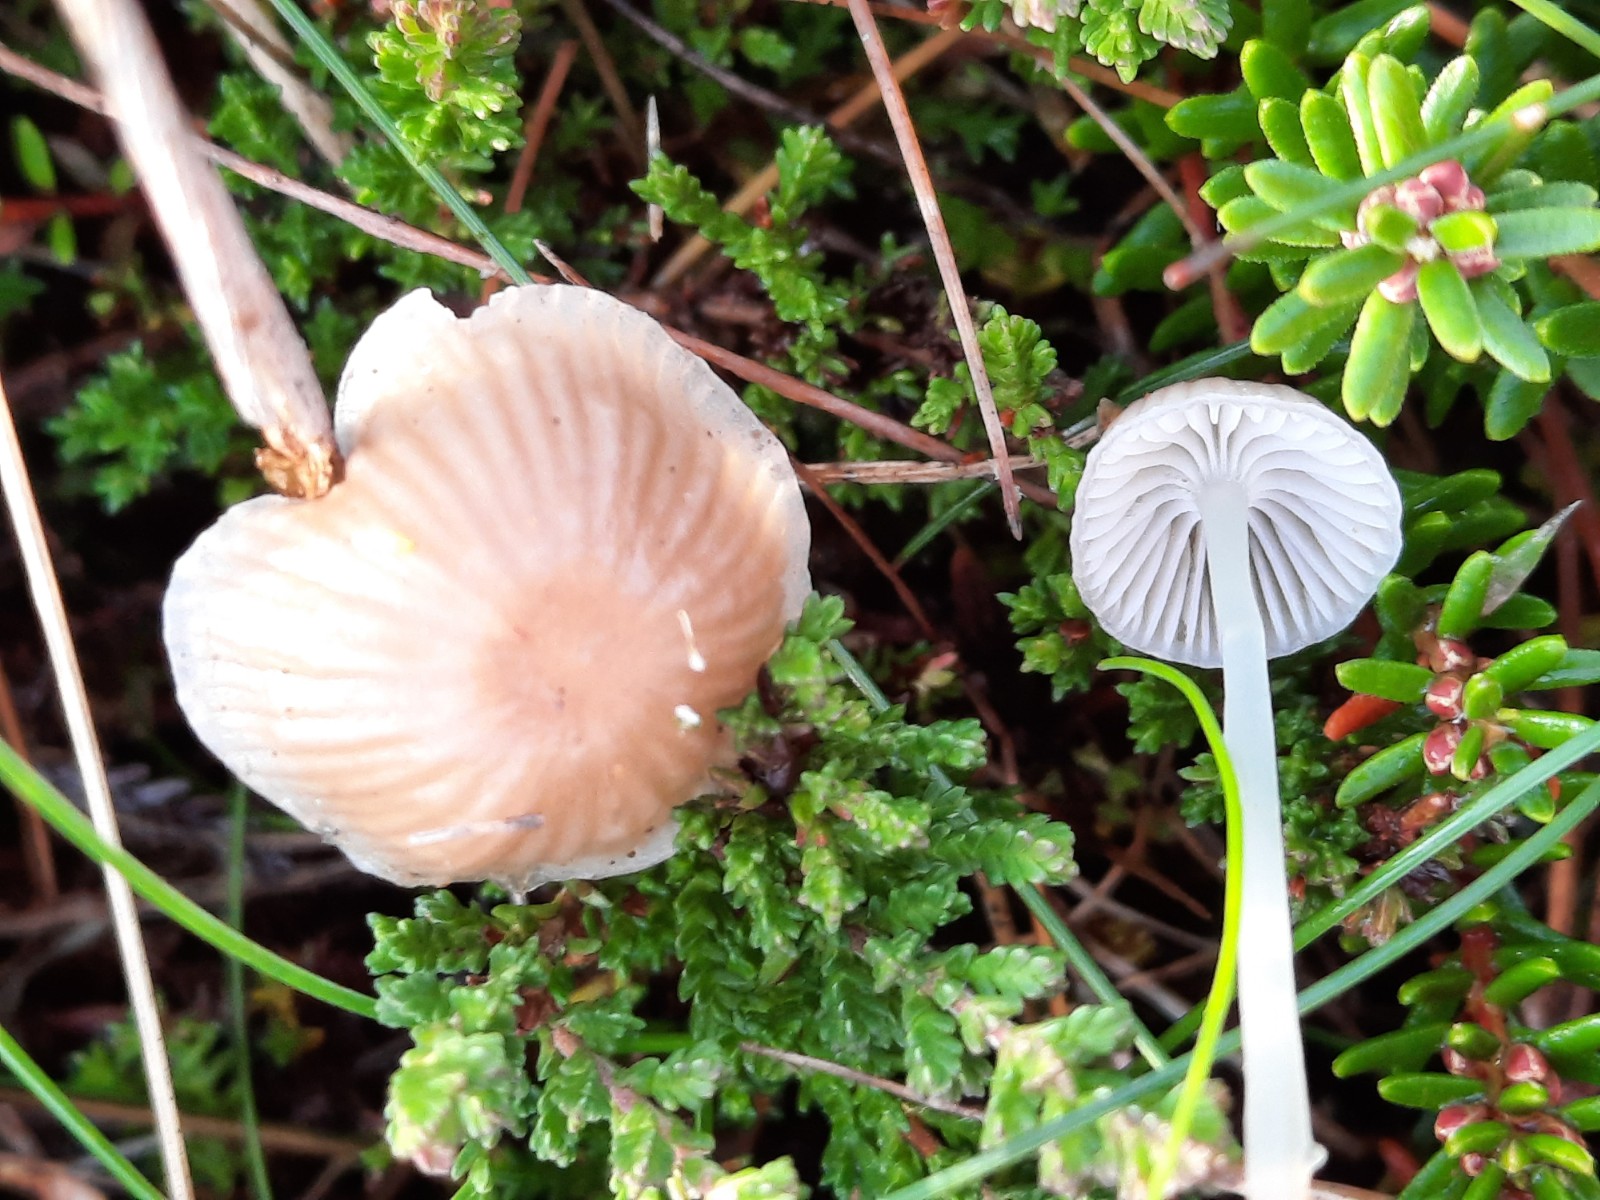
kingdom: Fungi
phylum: Basidiomycota
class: Agaricomycetes
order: Agaricales
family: Mycenaceae
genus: Mycena
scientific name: Mycena vulgaris
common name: klæbrig huesvamp
